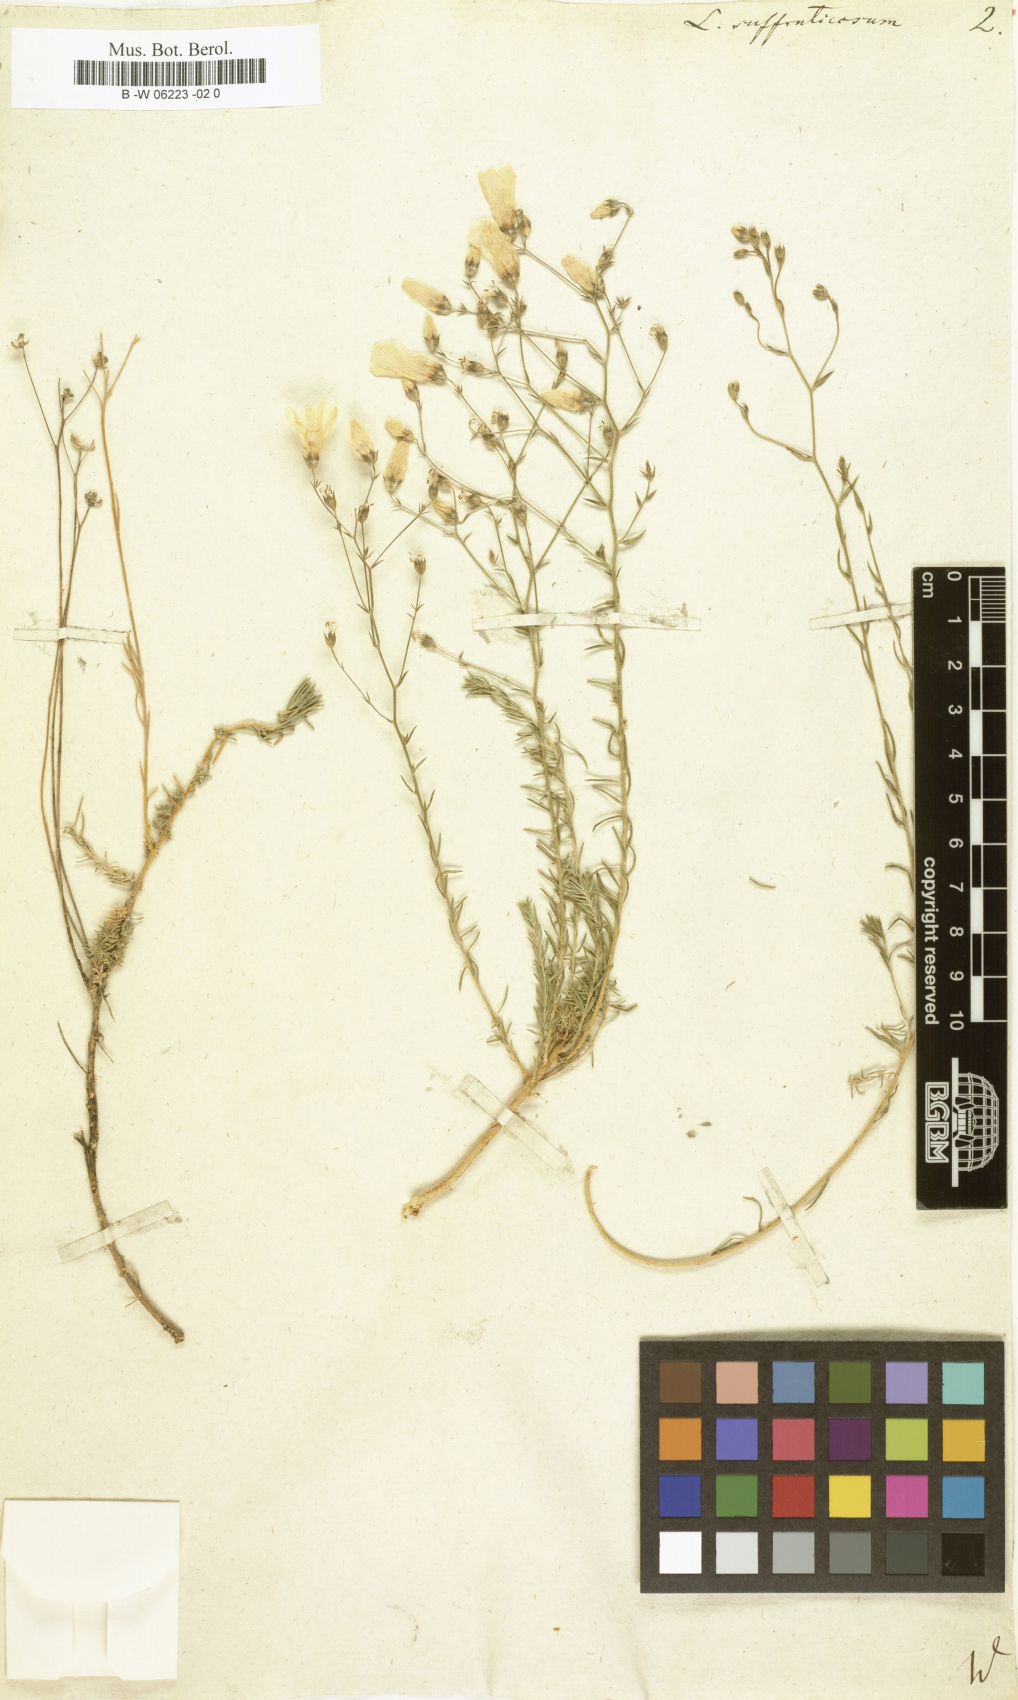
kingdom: Plantae
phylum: Tracheophyta
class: Magnoliopsida
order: Malpighiales
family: Linaceae
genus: Linum
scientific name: Linum
